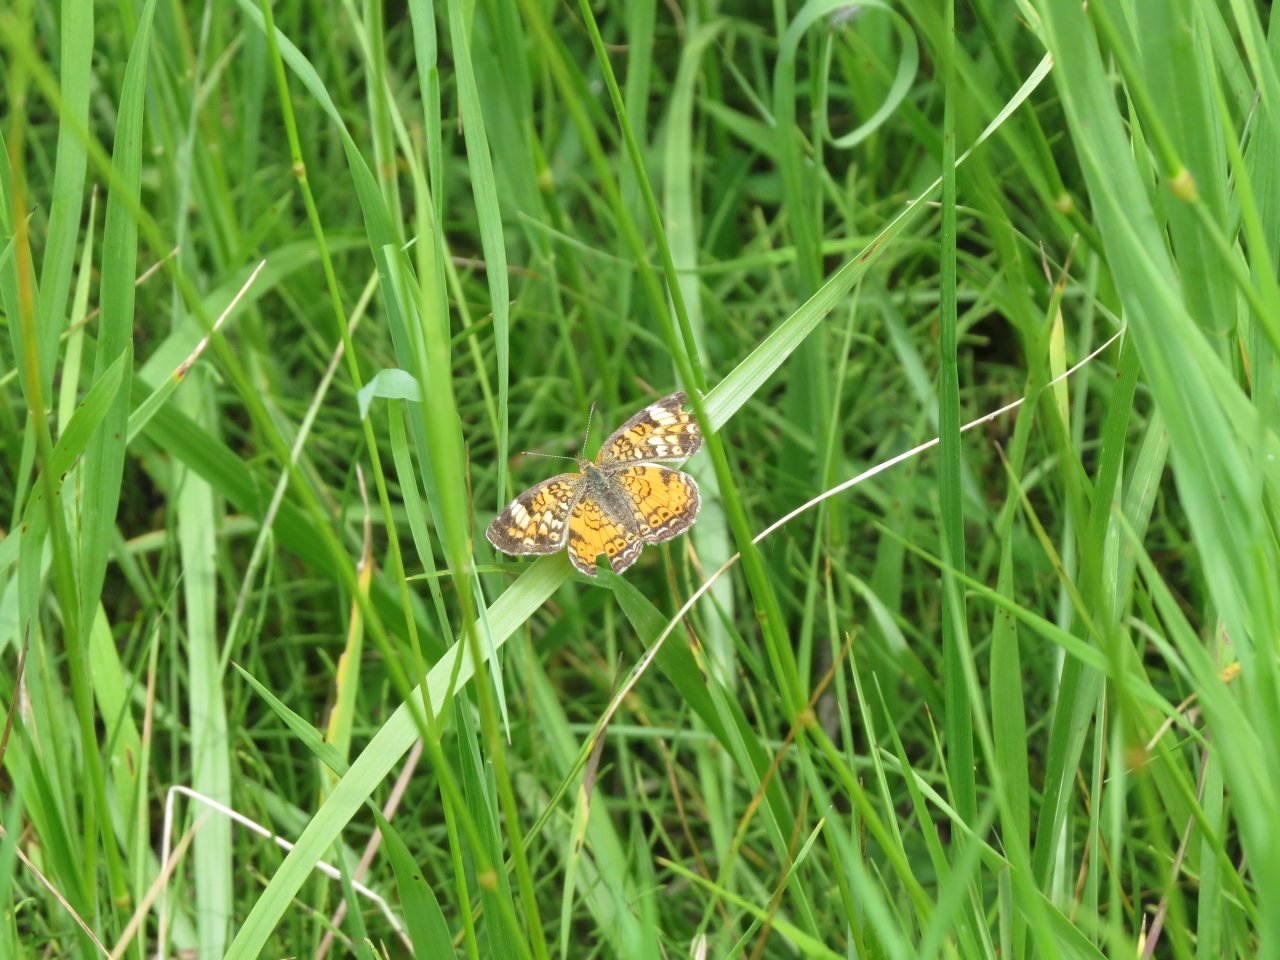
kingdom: Animalia
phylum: Arthropoda
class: Insecta
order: Lepidoptera
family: Nymphalidae
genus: Phyciodes
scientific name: Phyciodes batesii
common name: Tawny Crescent
